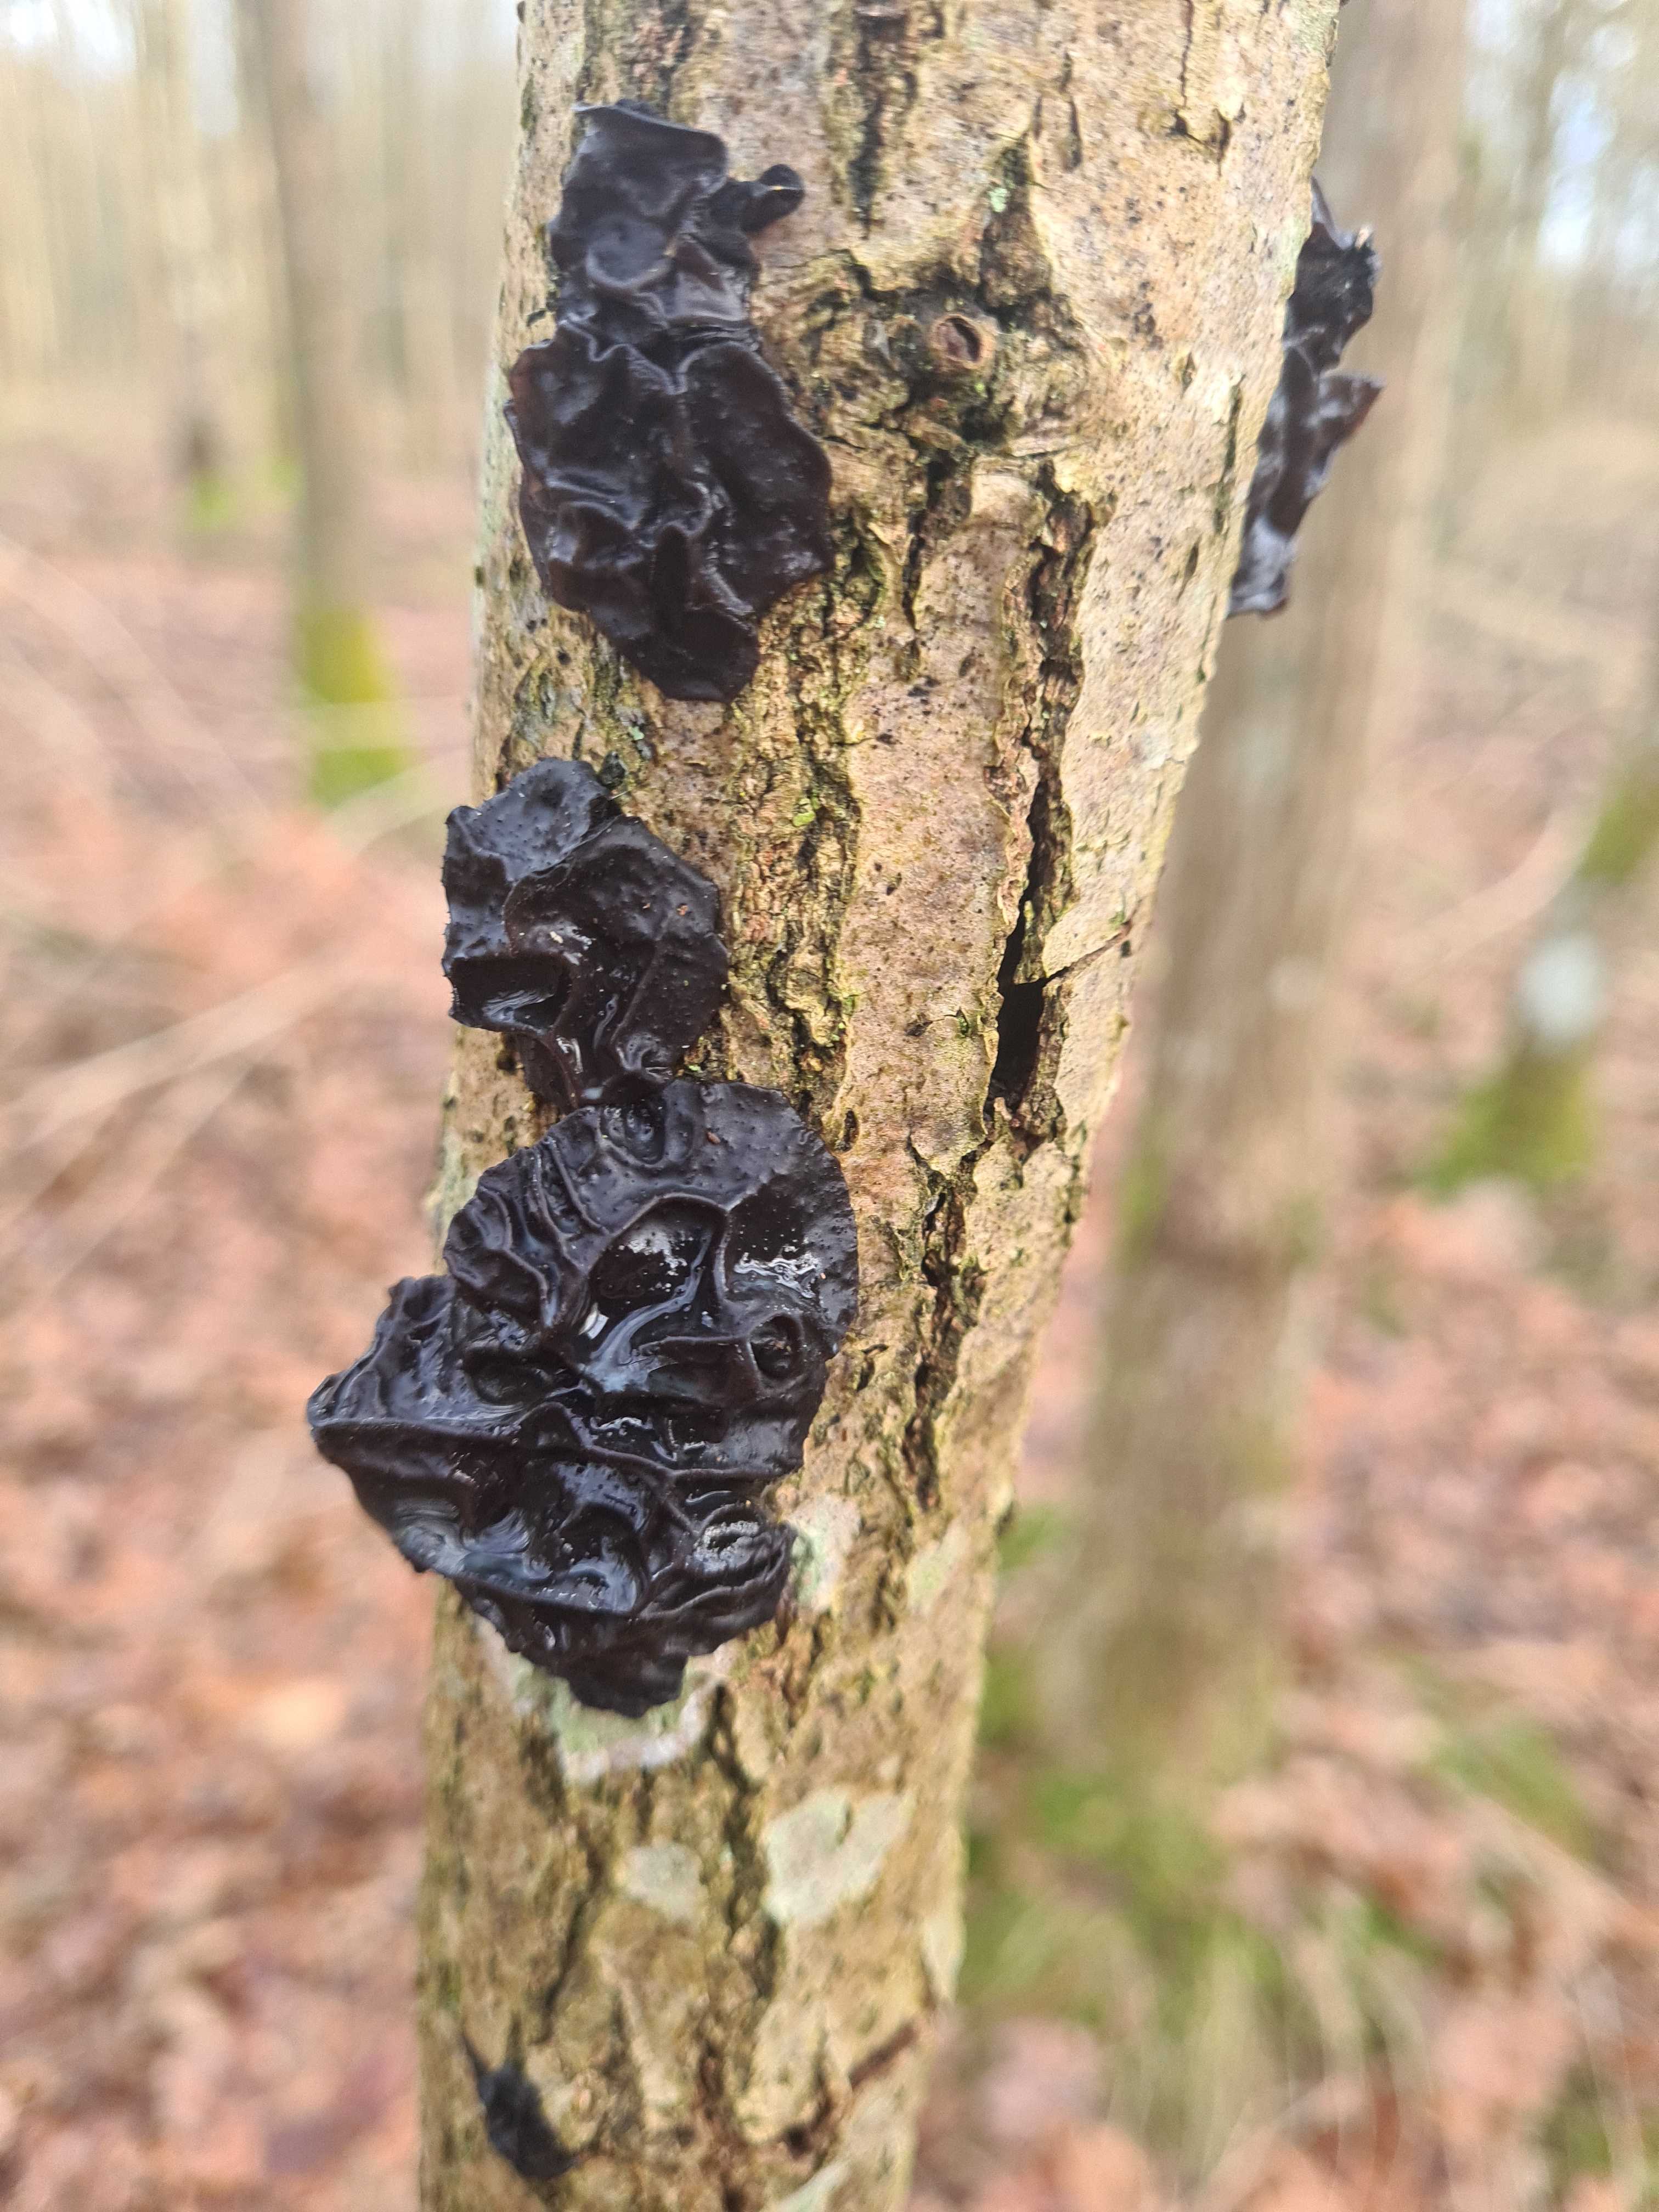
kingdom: Fungi
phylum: Basidiomycota
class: Agaricomycetes
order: Auriculariales
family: Auriculariaceae
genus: Exidia
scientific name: Exidia glandulosa
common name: ege-bævretop
